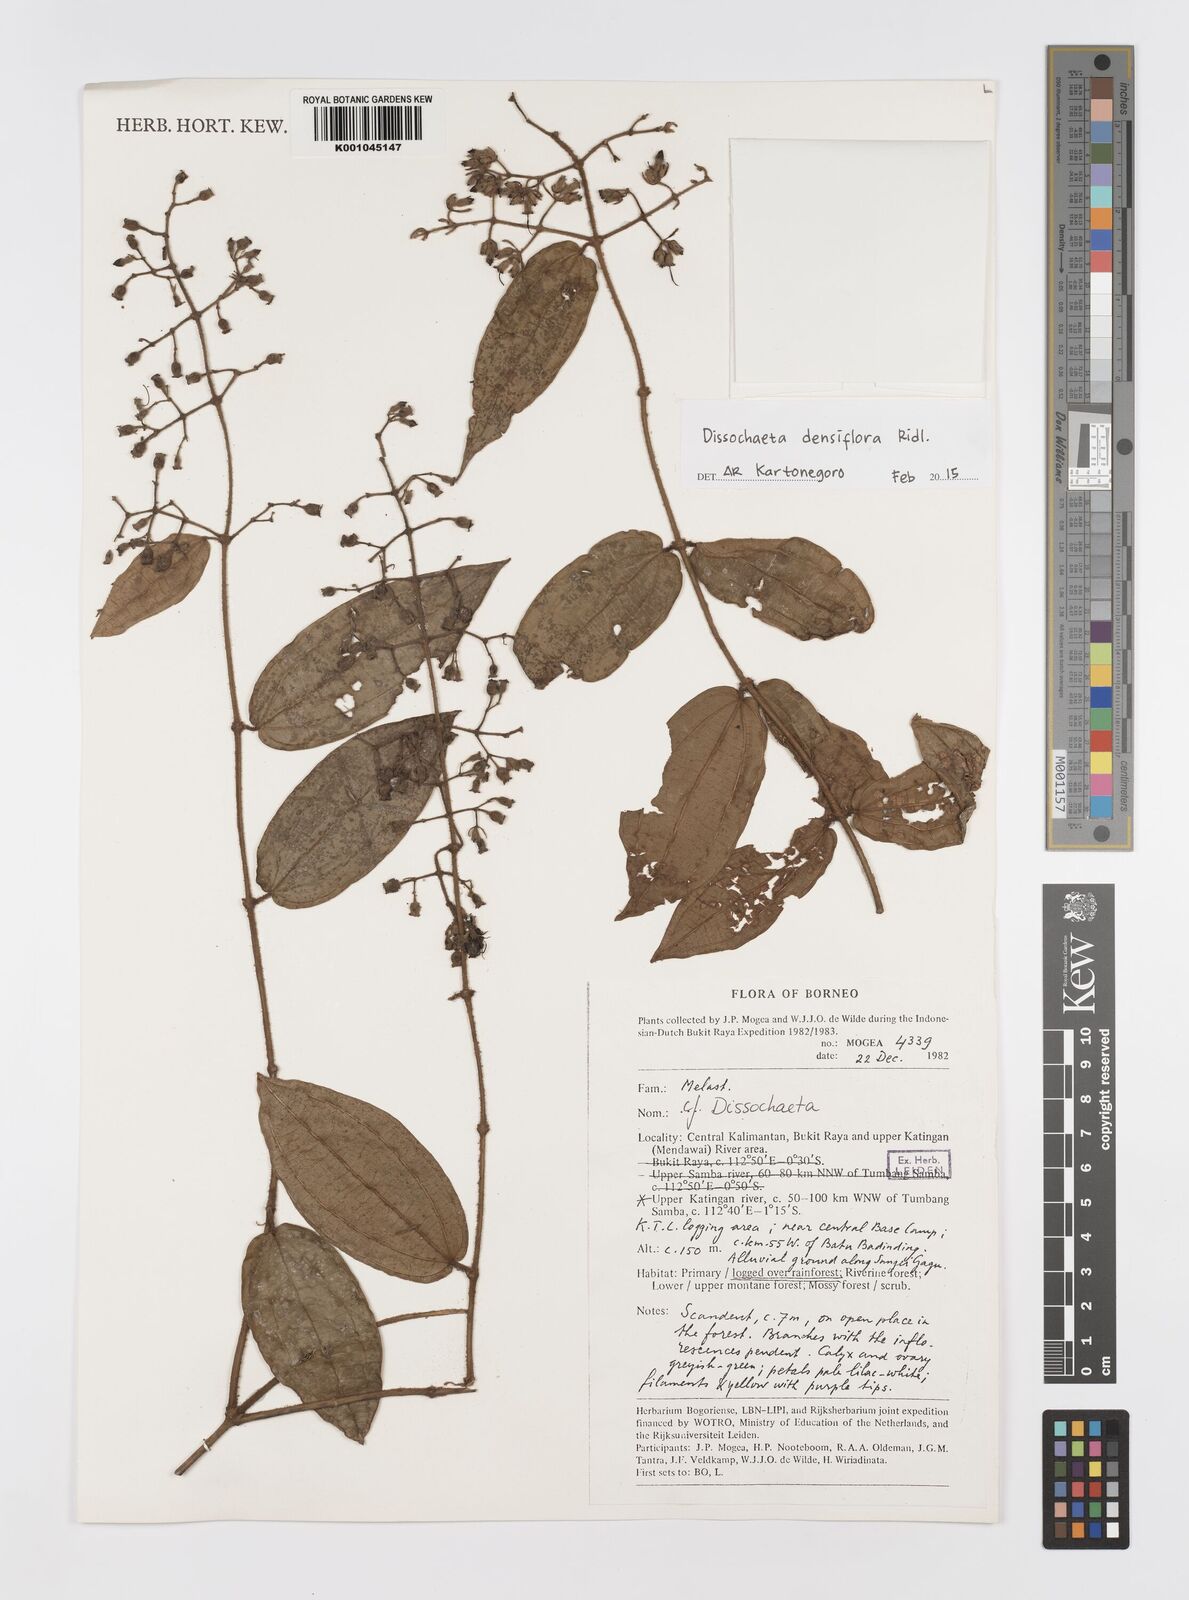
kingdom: Plantae
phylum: Tracheophyta
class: Magnoliopsida
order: Myrtales
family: Melastomataceae
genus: Dissochaeta
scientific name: Dissochaeta densiflora
